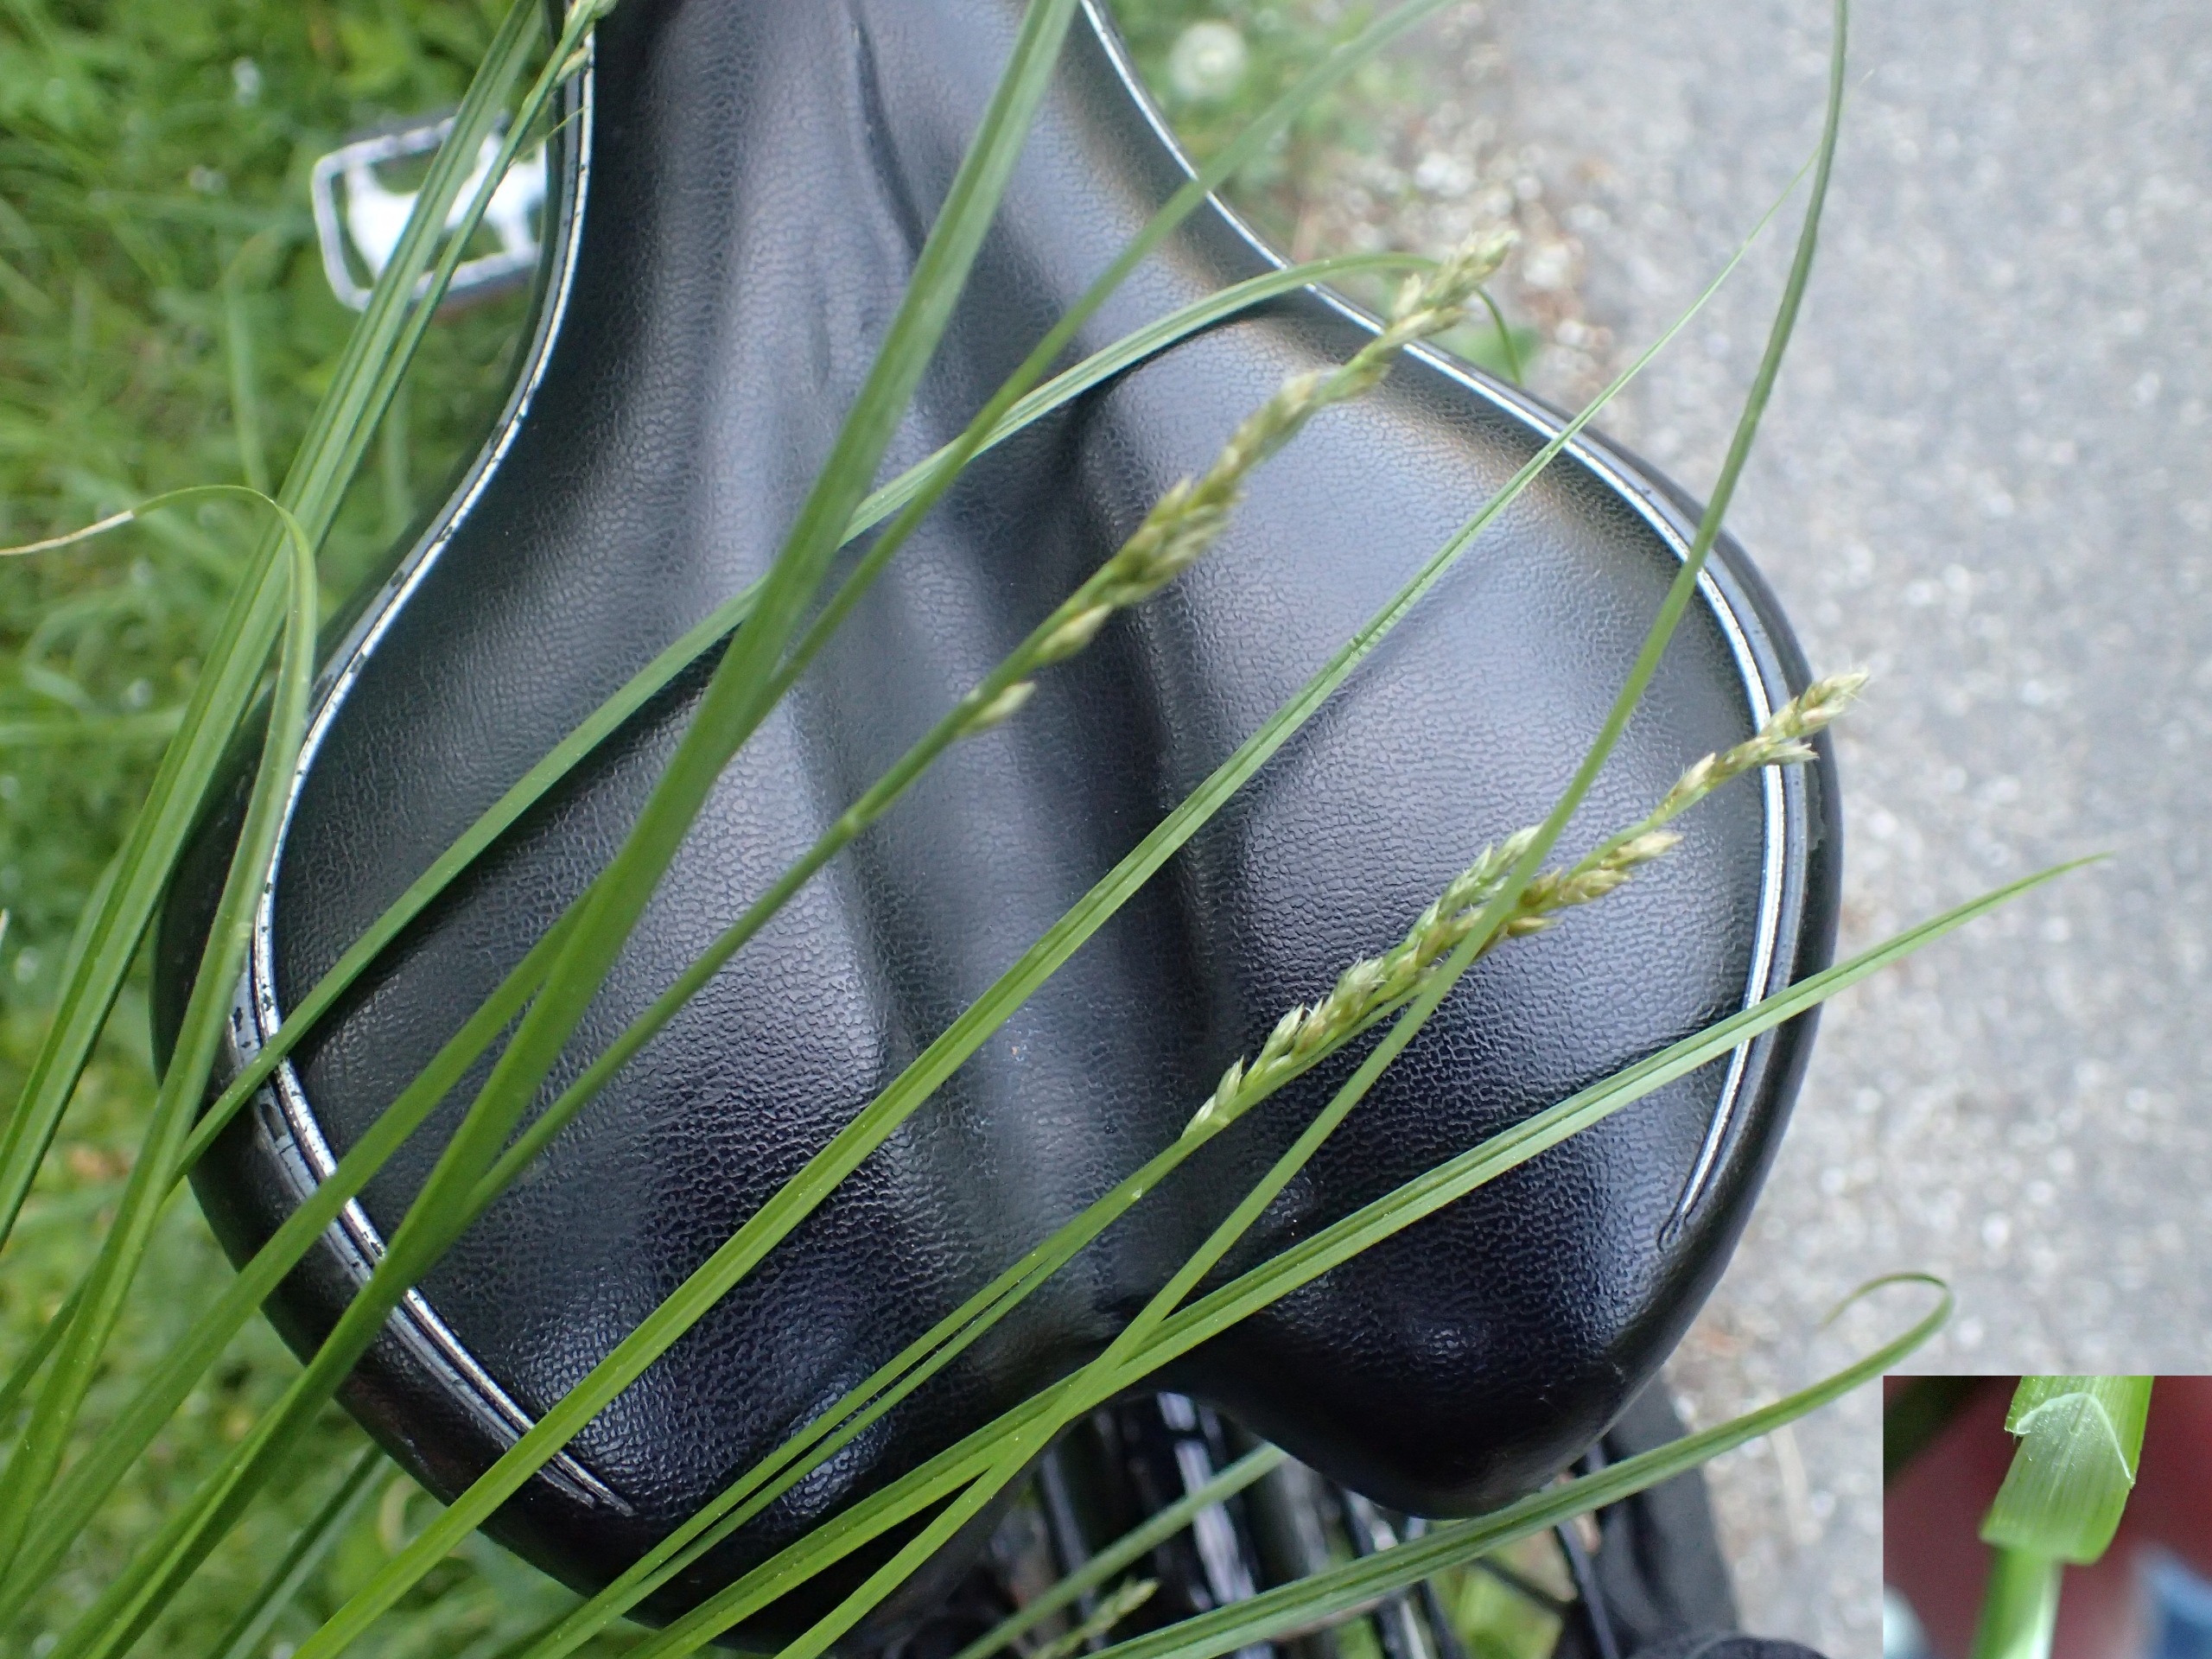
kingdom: Plantae
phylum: Tracheophyta
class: Liliopsida
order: Poales
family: Cyperaceae
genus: Carex
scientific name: Carex divulsa
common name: Mellembrudt star
